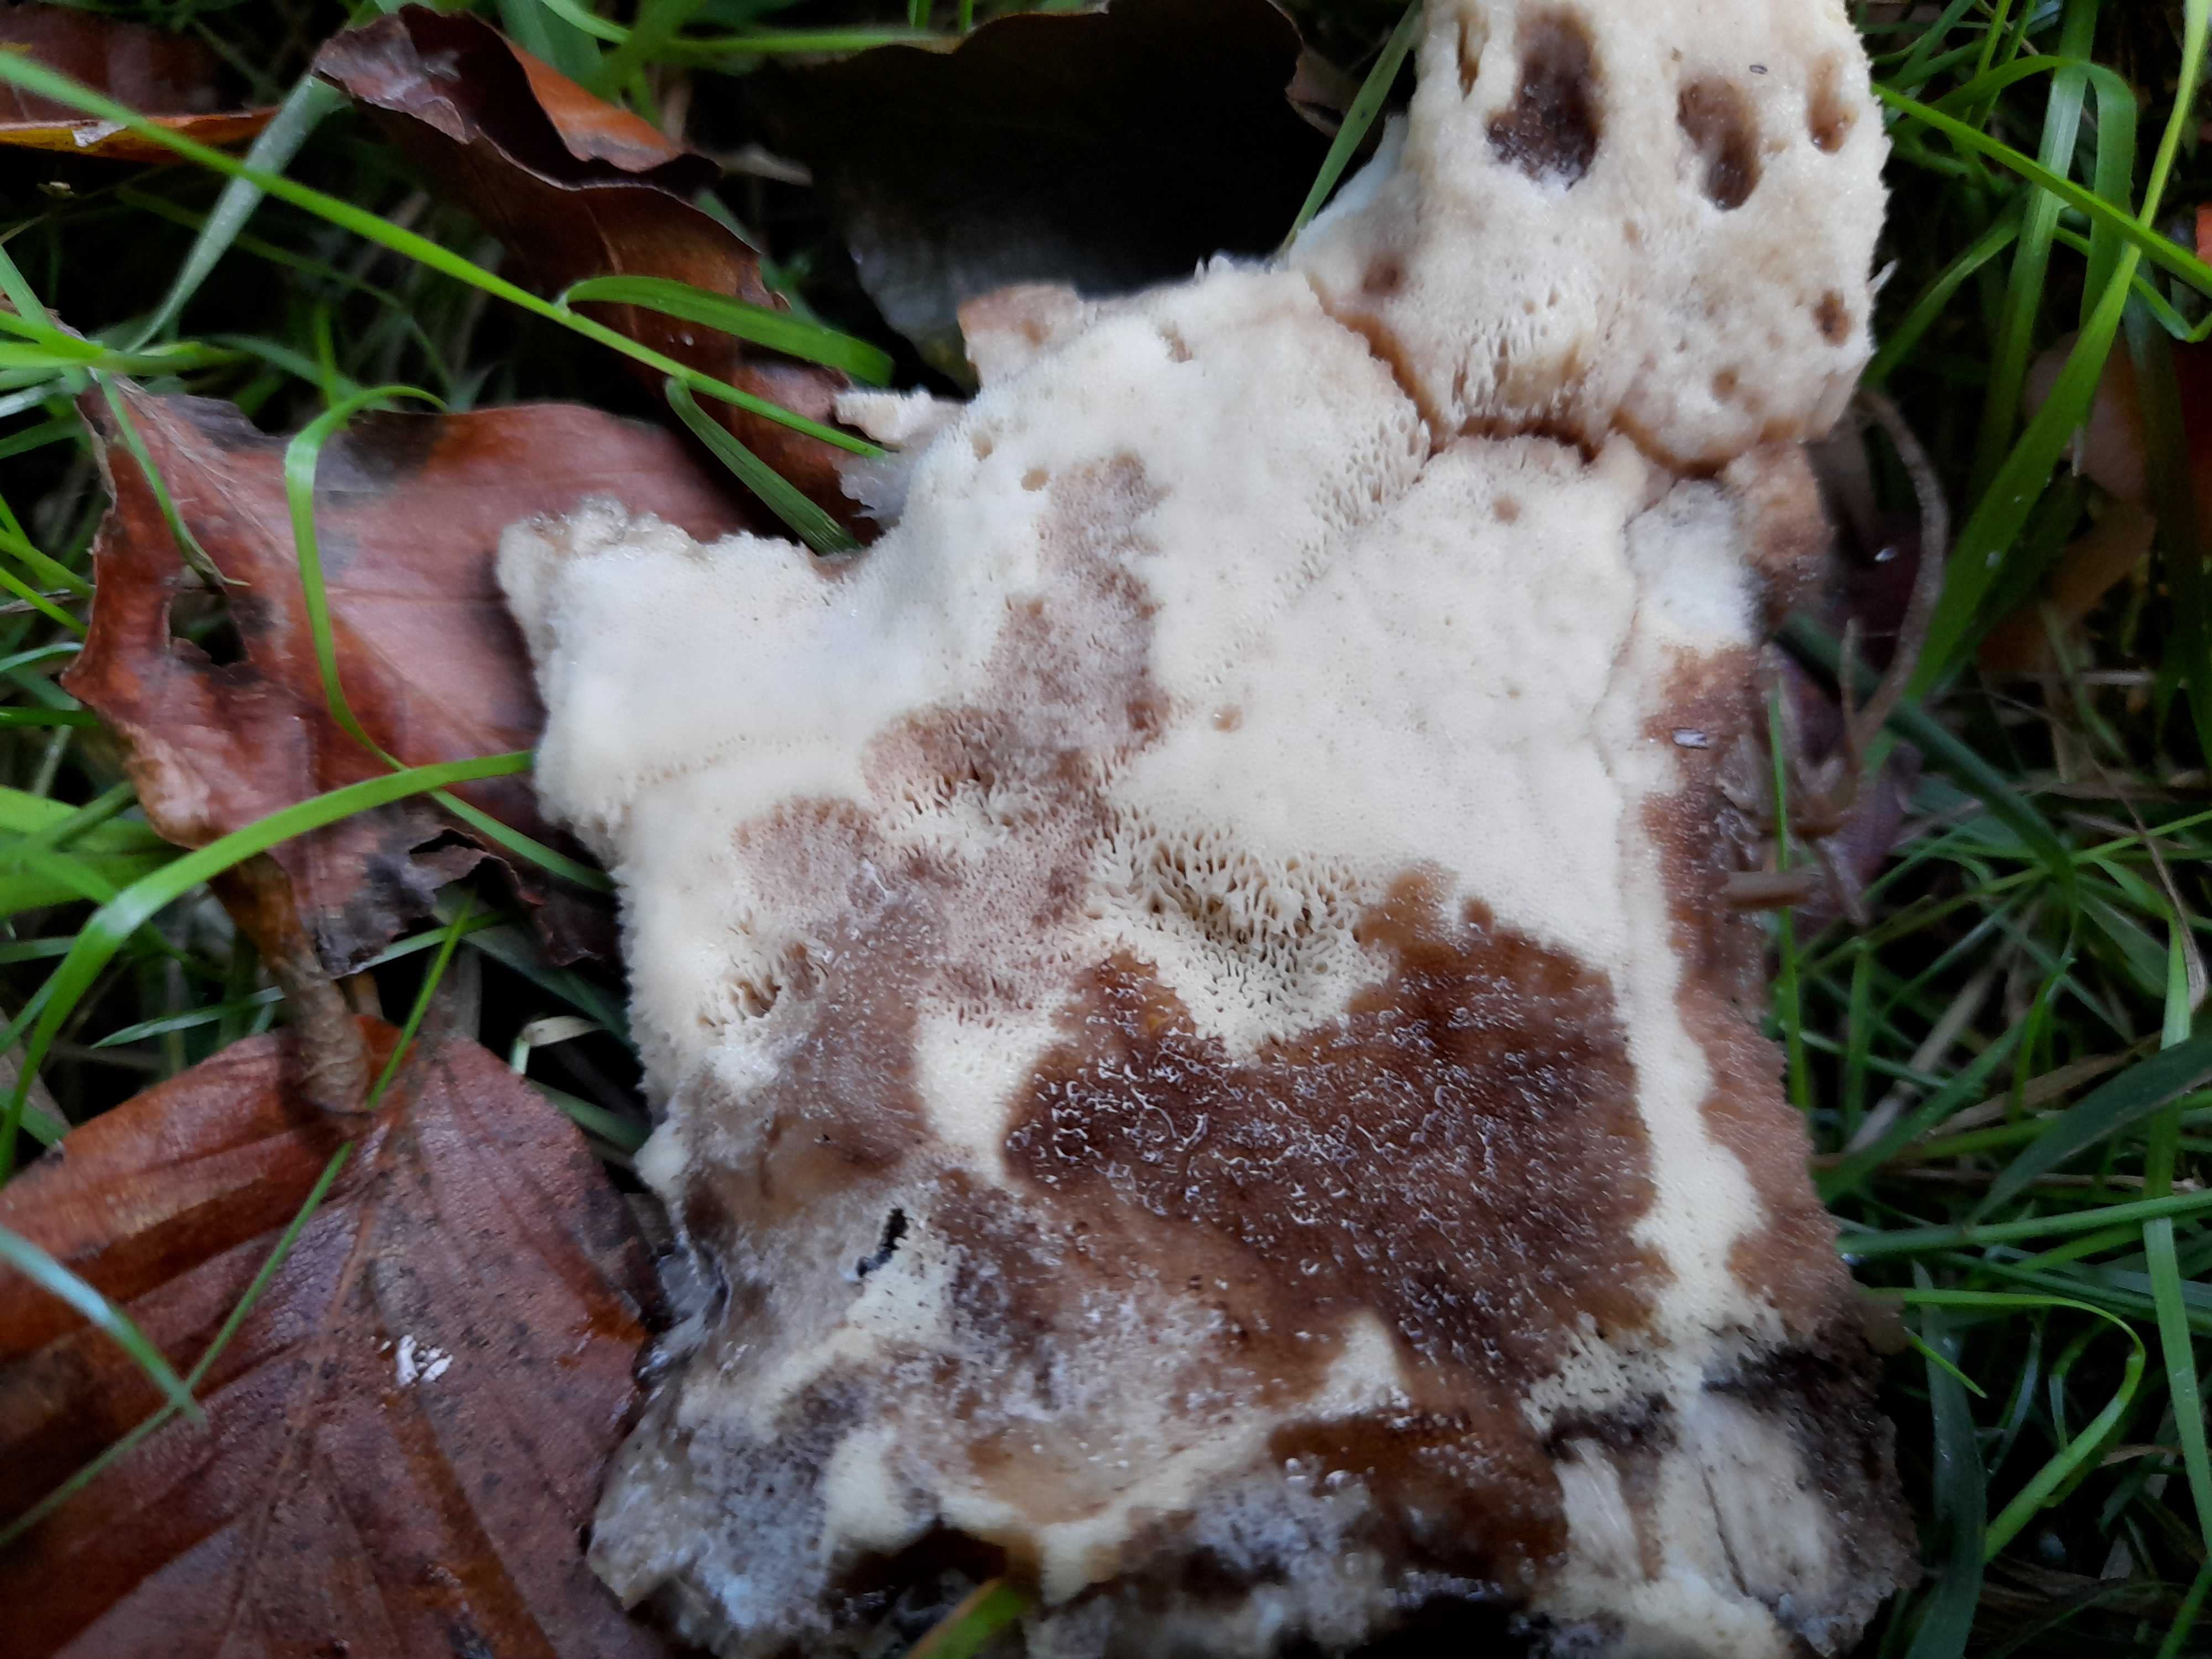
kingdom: Fungi
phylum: Basidiomycota
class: Agaricomycetes
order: Polyporales
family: Meripilaceae
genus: Meripilus
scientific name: Meripilus giganteus
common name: kæmpeporesvamp
